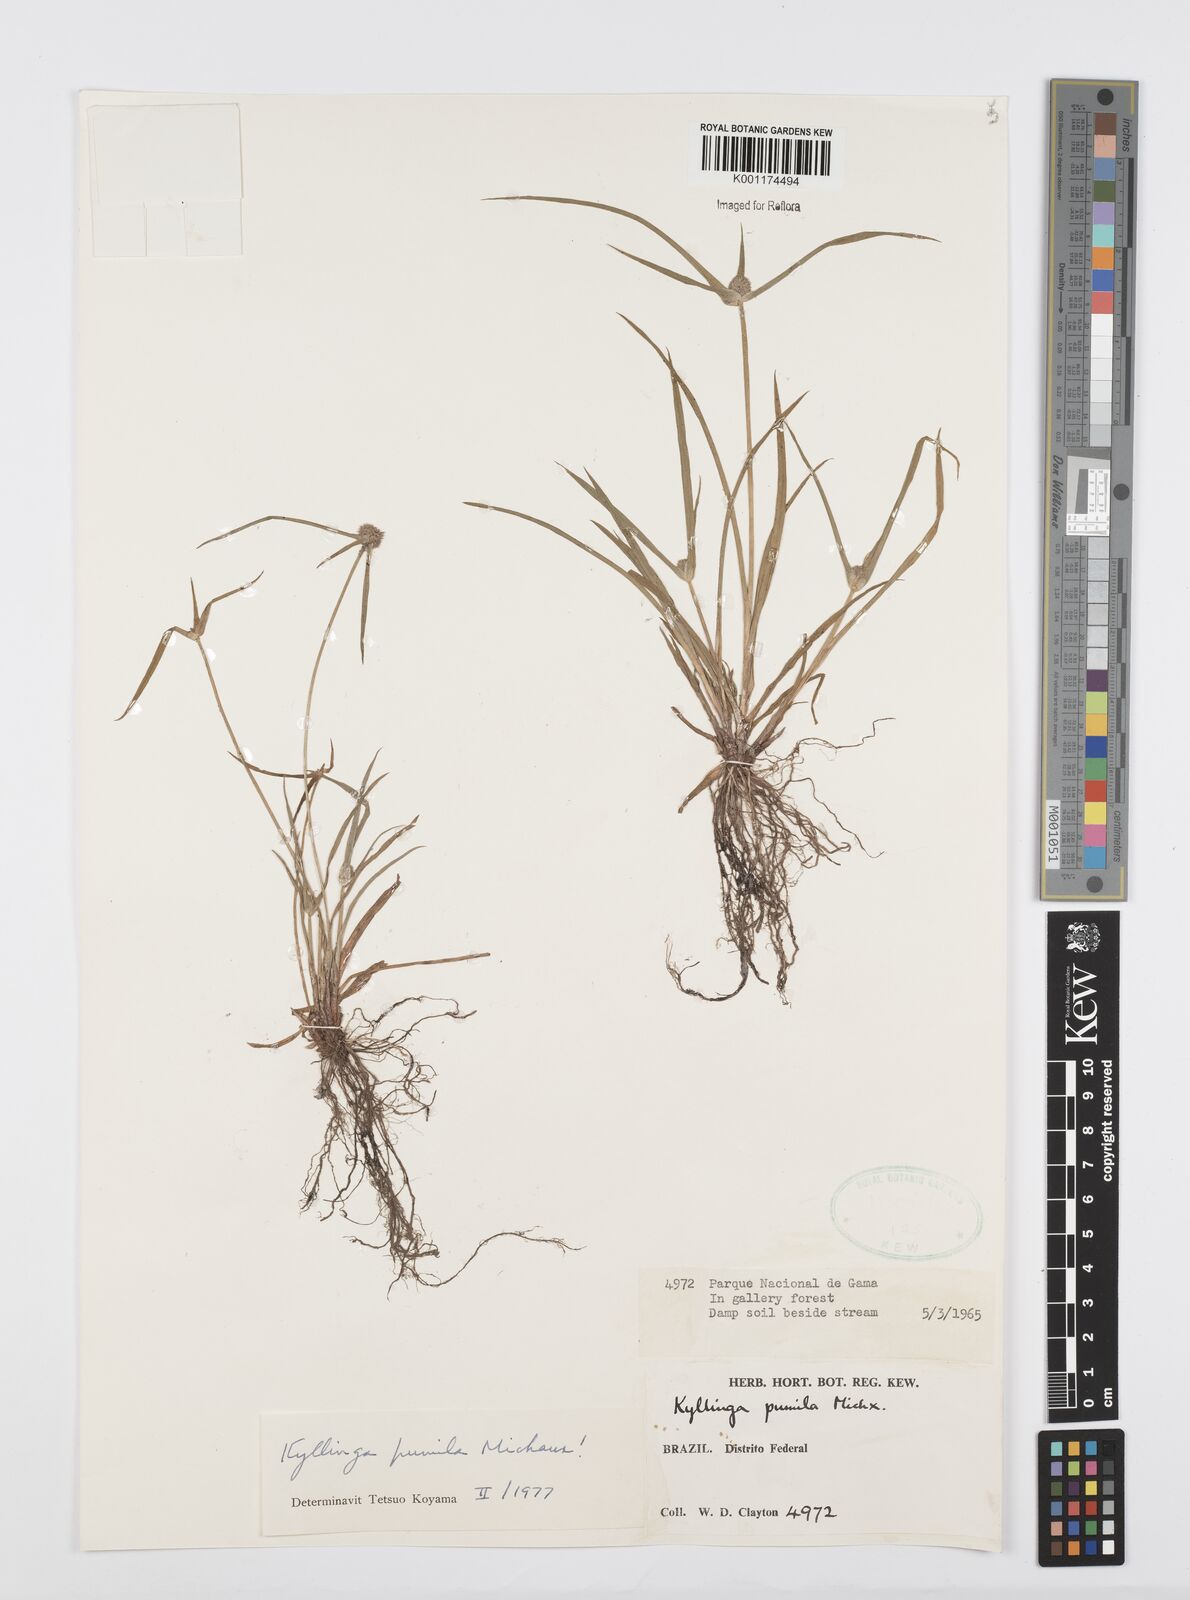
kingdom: Plantae
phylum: Tracheophyta
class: Liliopsida
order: Poales
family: Cyperaceae
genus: Cyperus
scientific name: Cyperus
